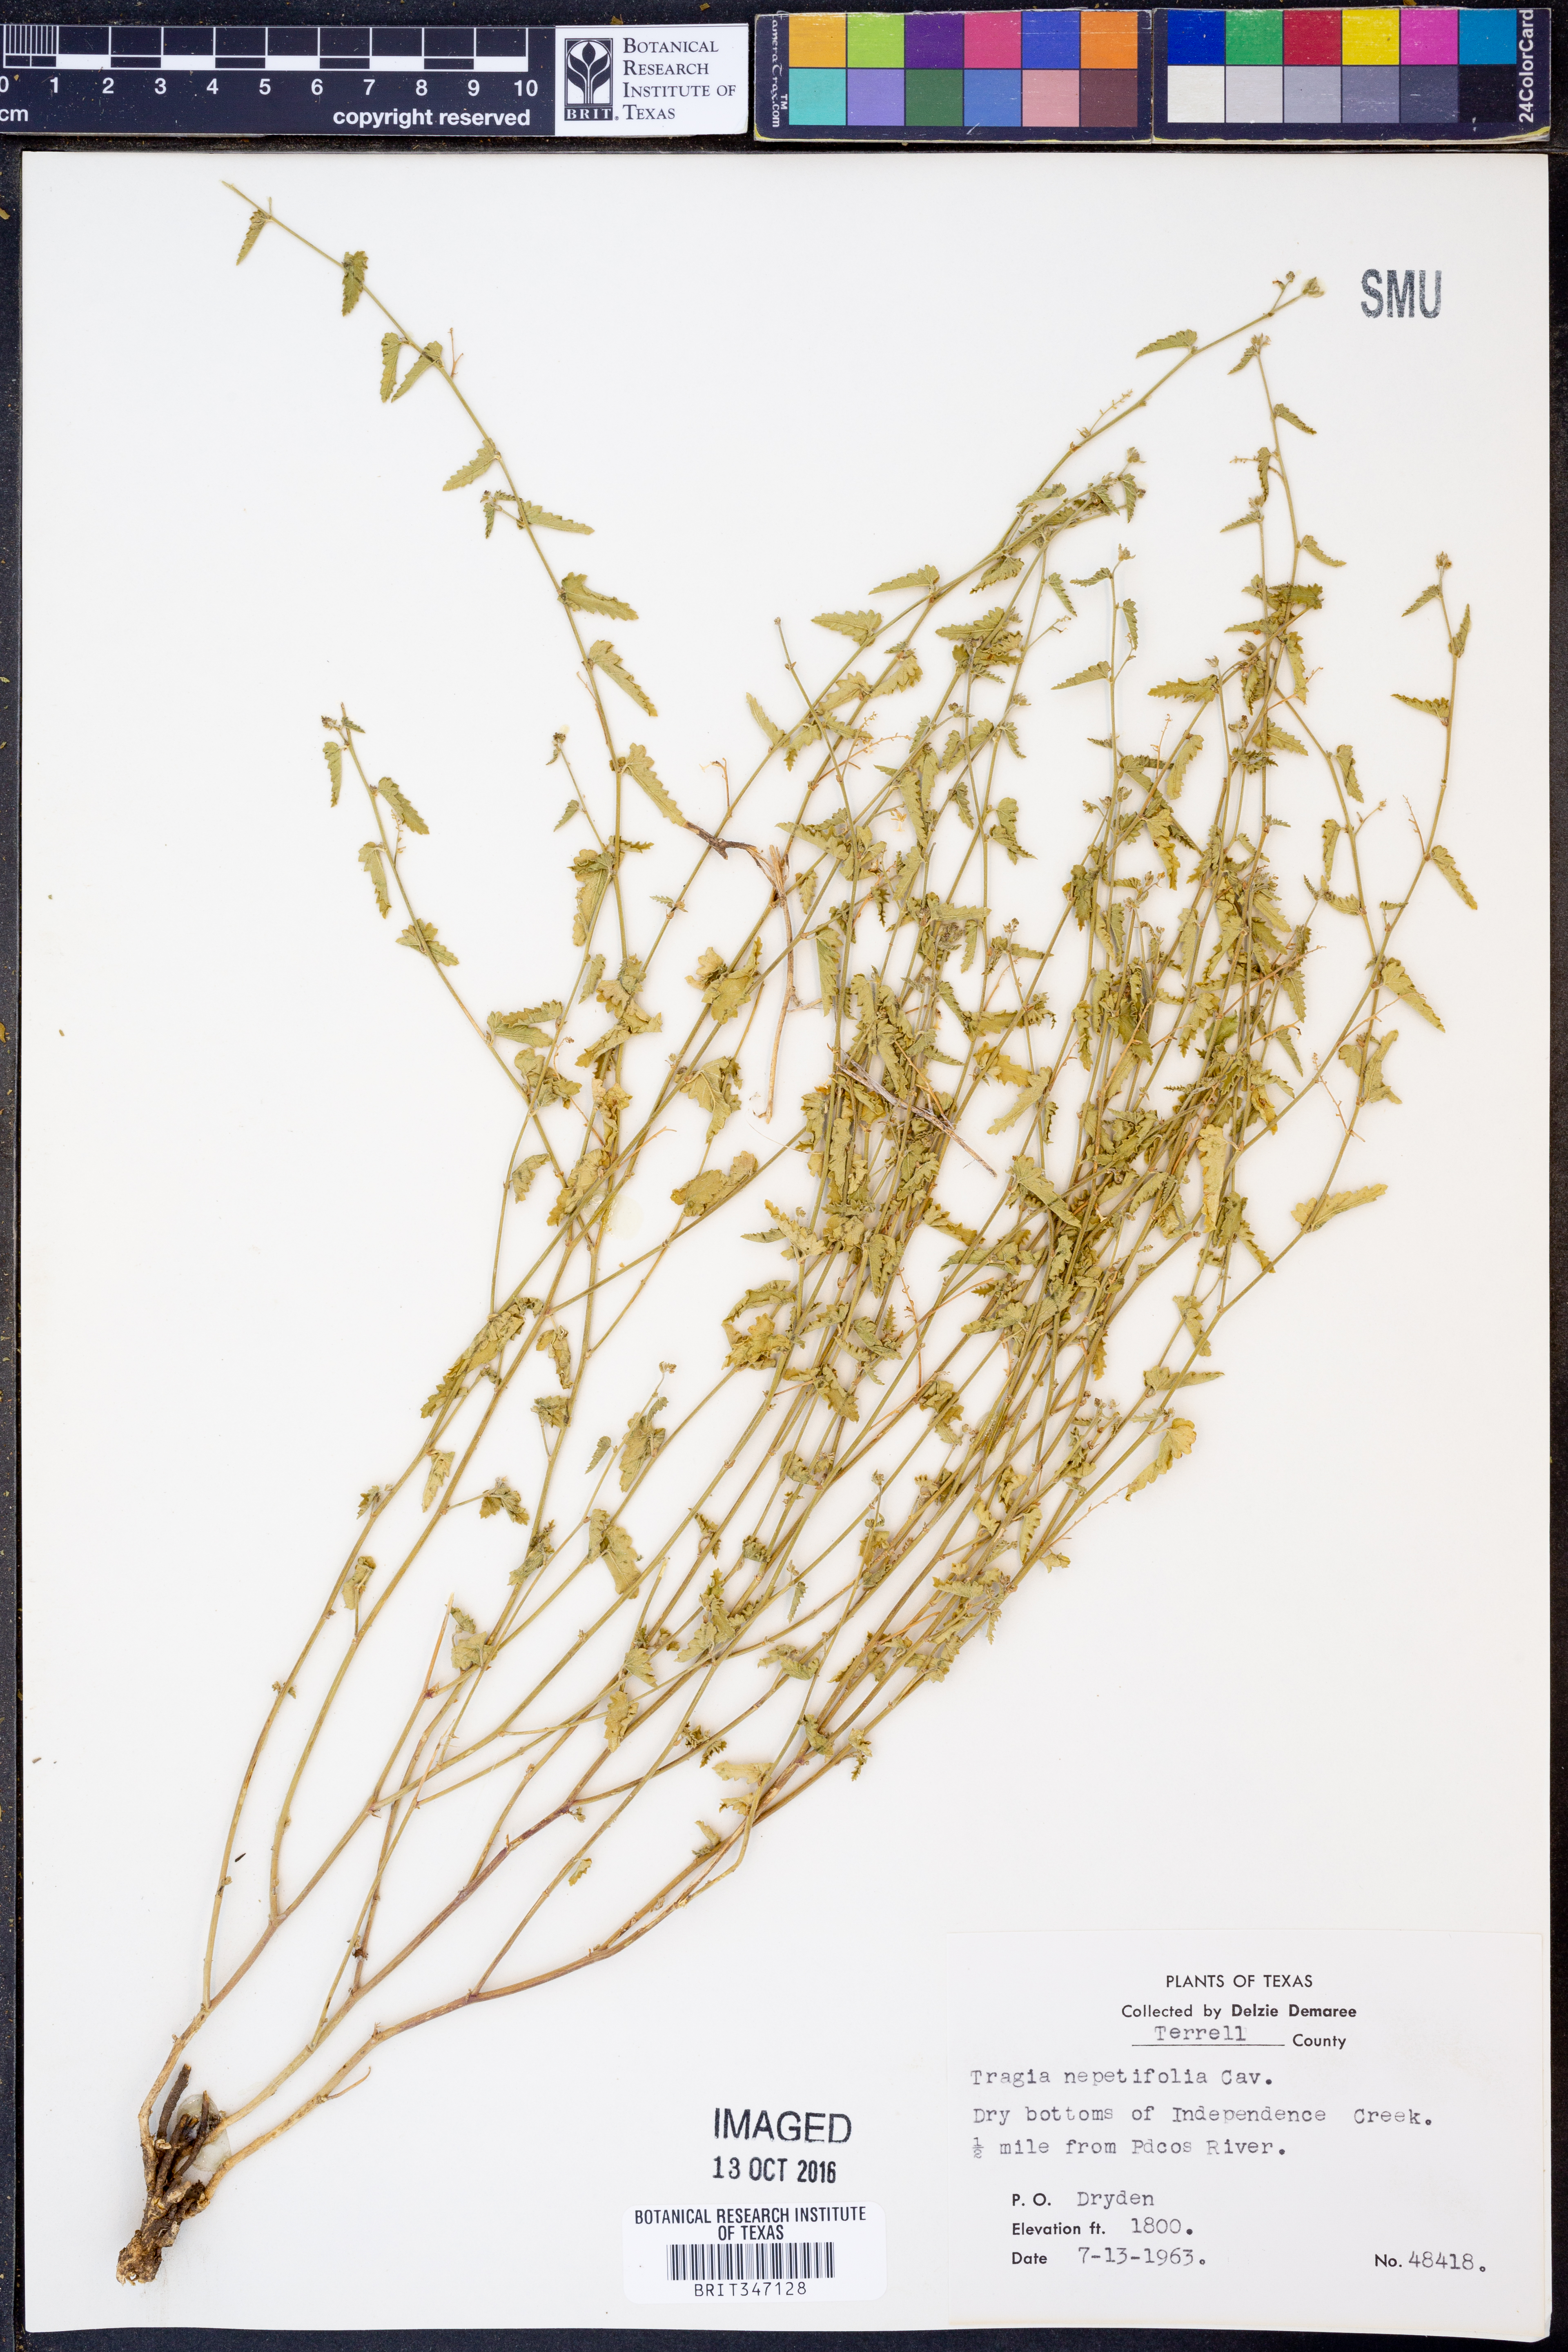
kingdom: Plantae
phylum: Tracheophyta
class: Magnoliopsida
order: Malpighiales
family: Euphorbiaceae
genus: Tragia
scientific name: Tragia nepetifolia
